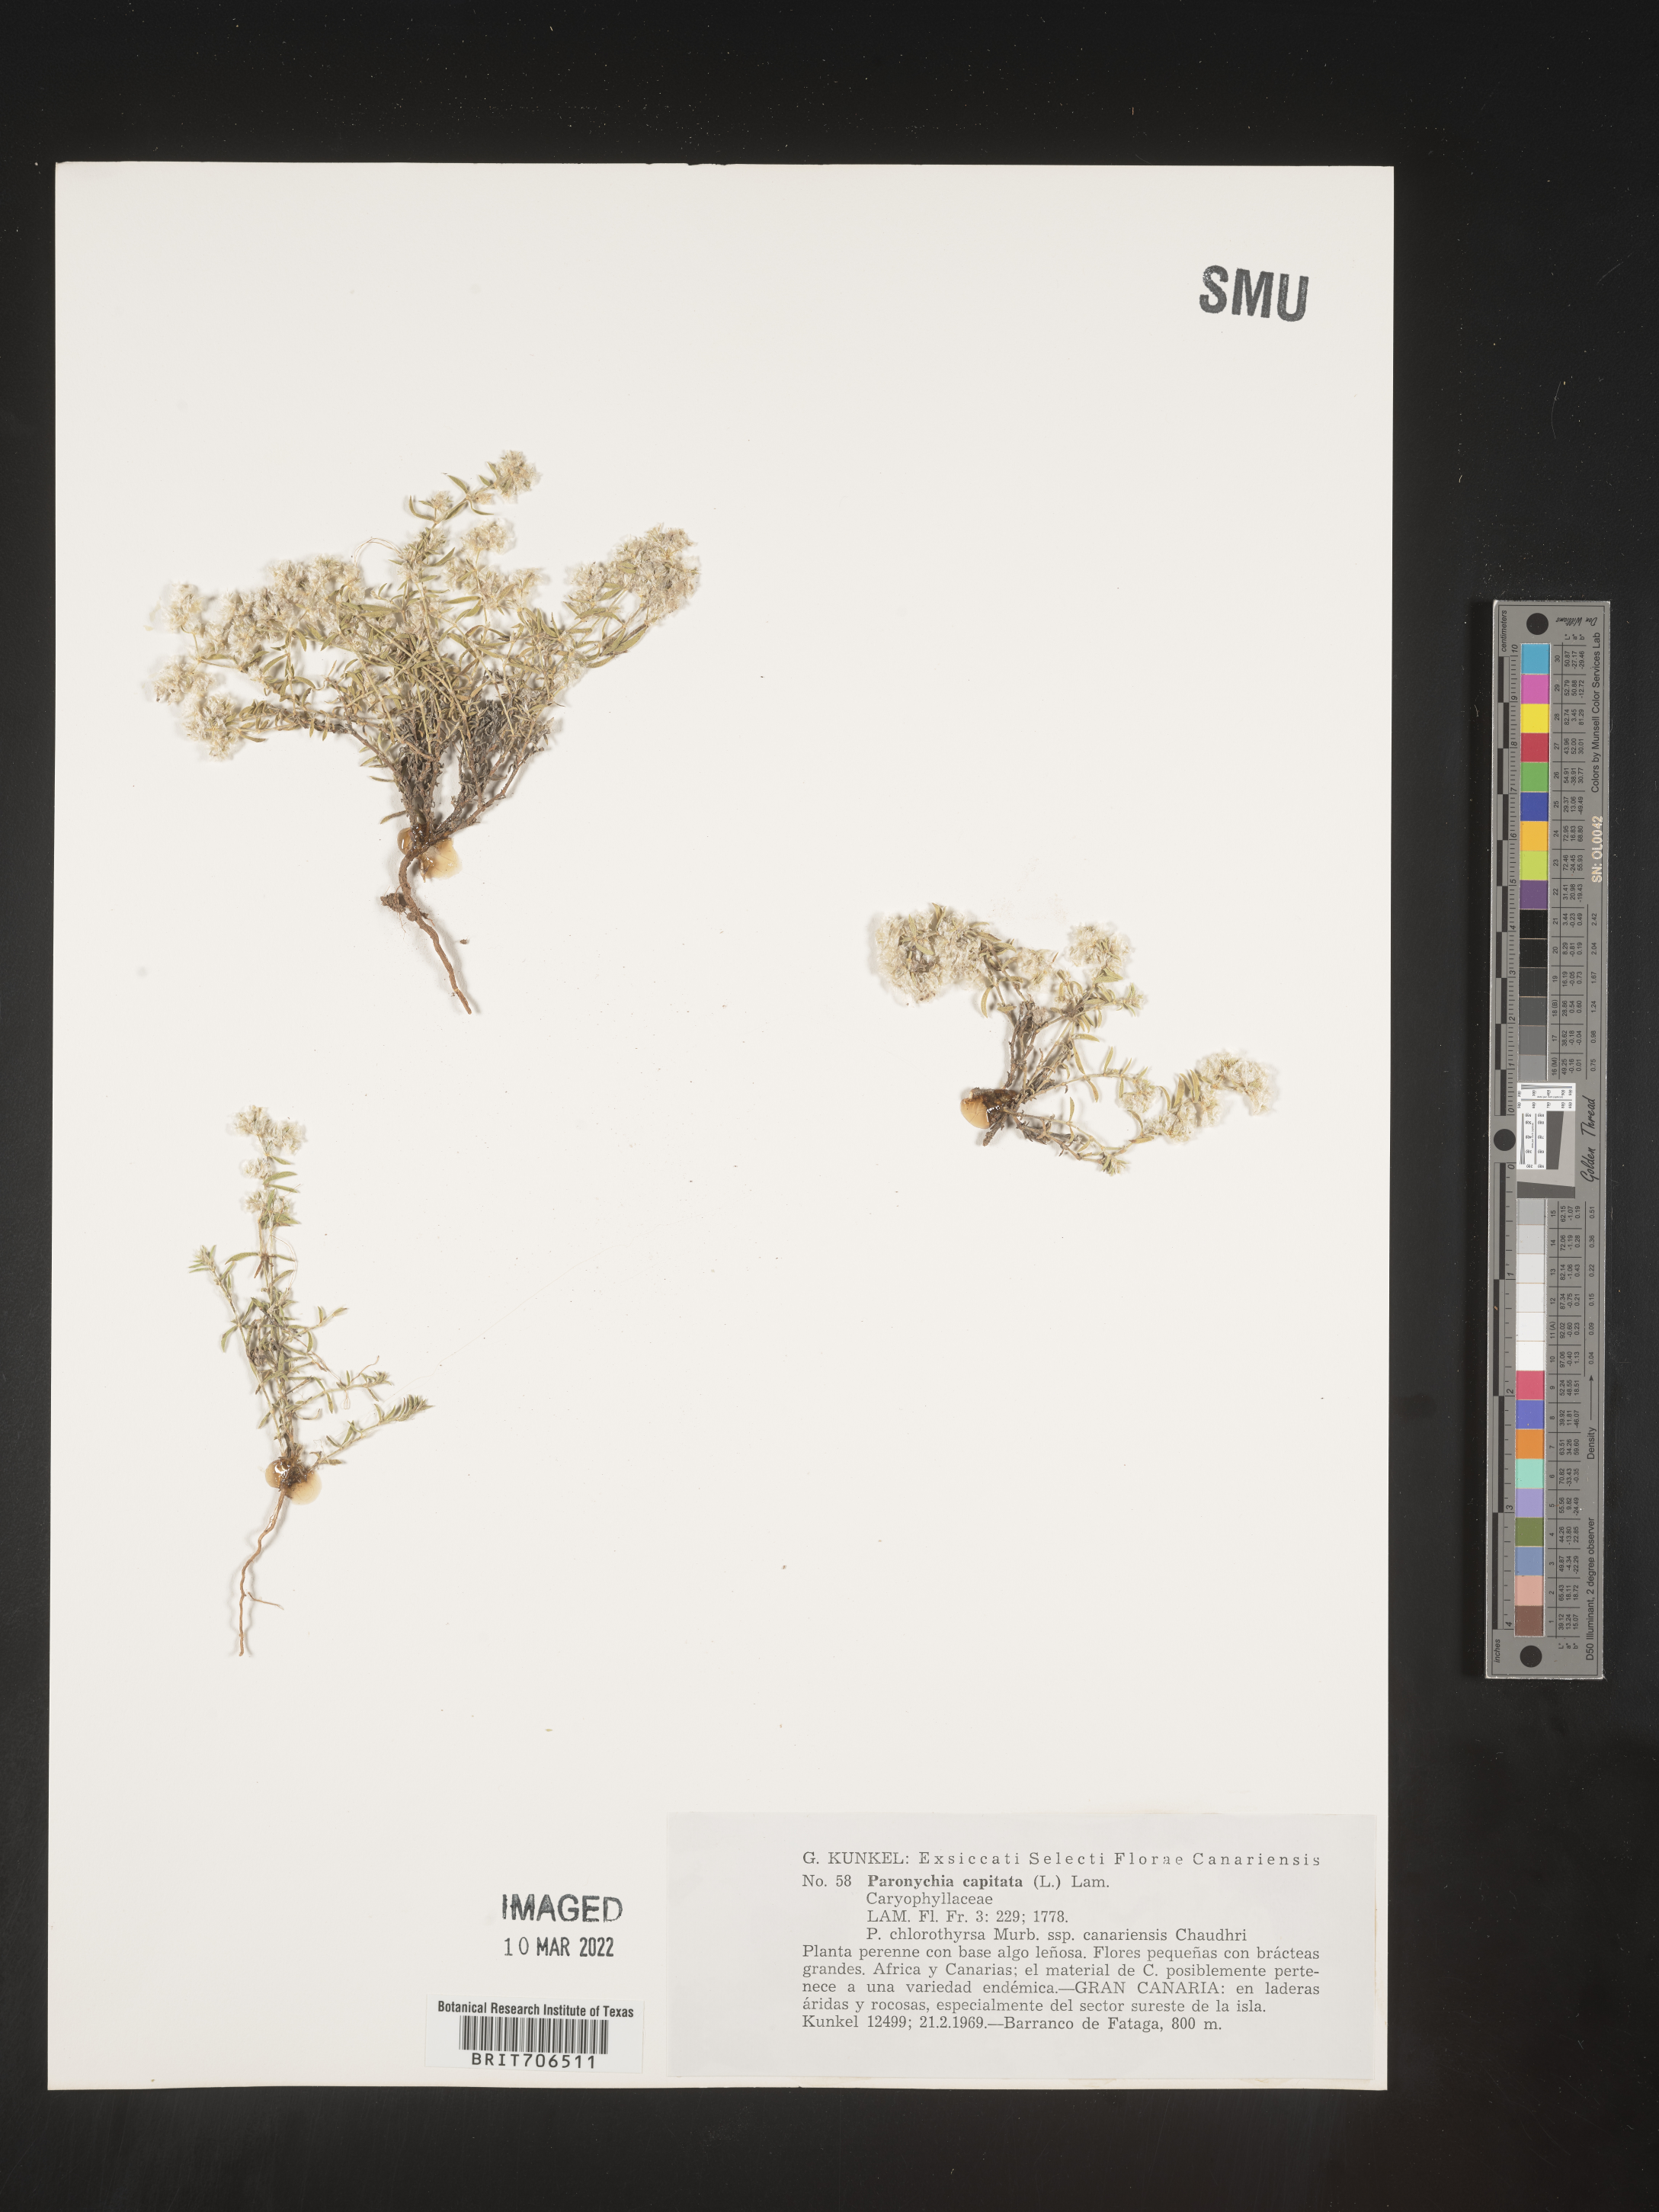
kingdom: Plantae
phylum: Tracheophyta
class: Magnoliopsida
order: Caryophyllales
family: Caryophyllaceae
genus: Paronychia
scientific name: Paronychia
